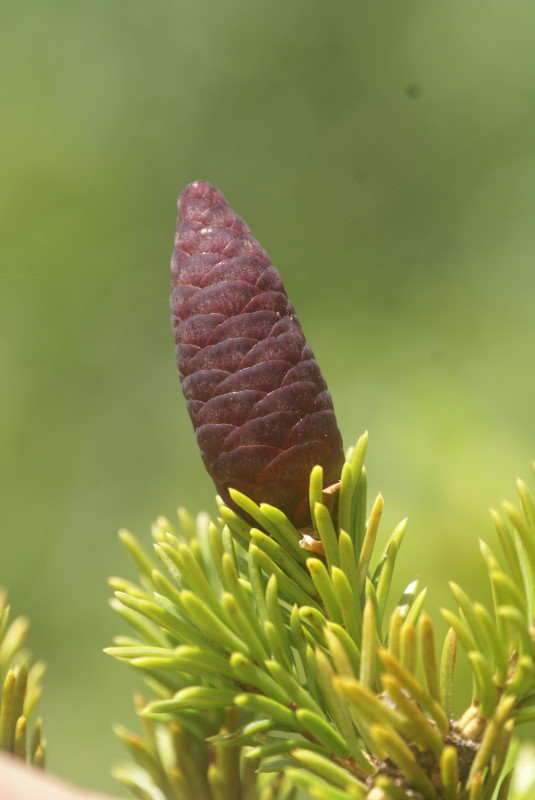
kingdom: Plantae
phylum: Tracheophyta
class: Pinopsida
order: Pinales
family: Pinaceae
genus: Picea
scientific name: Picea obovata
